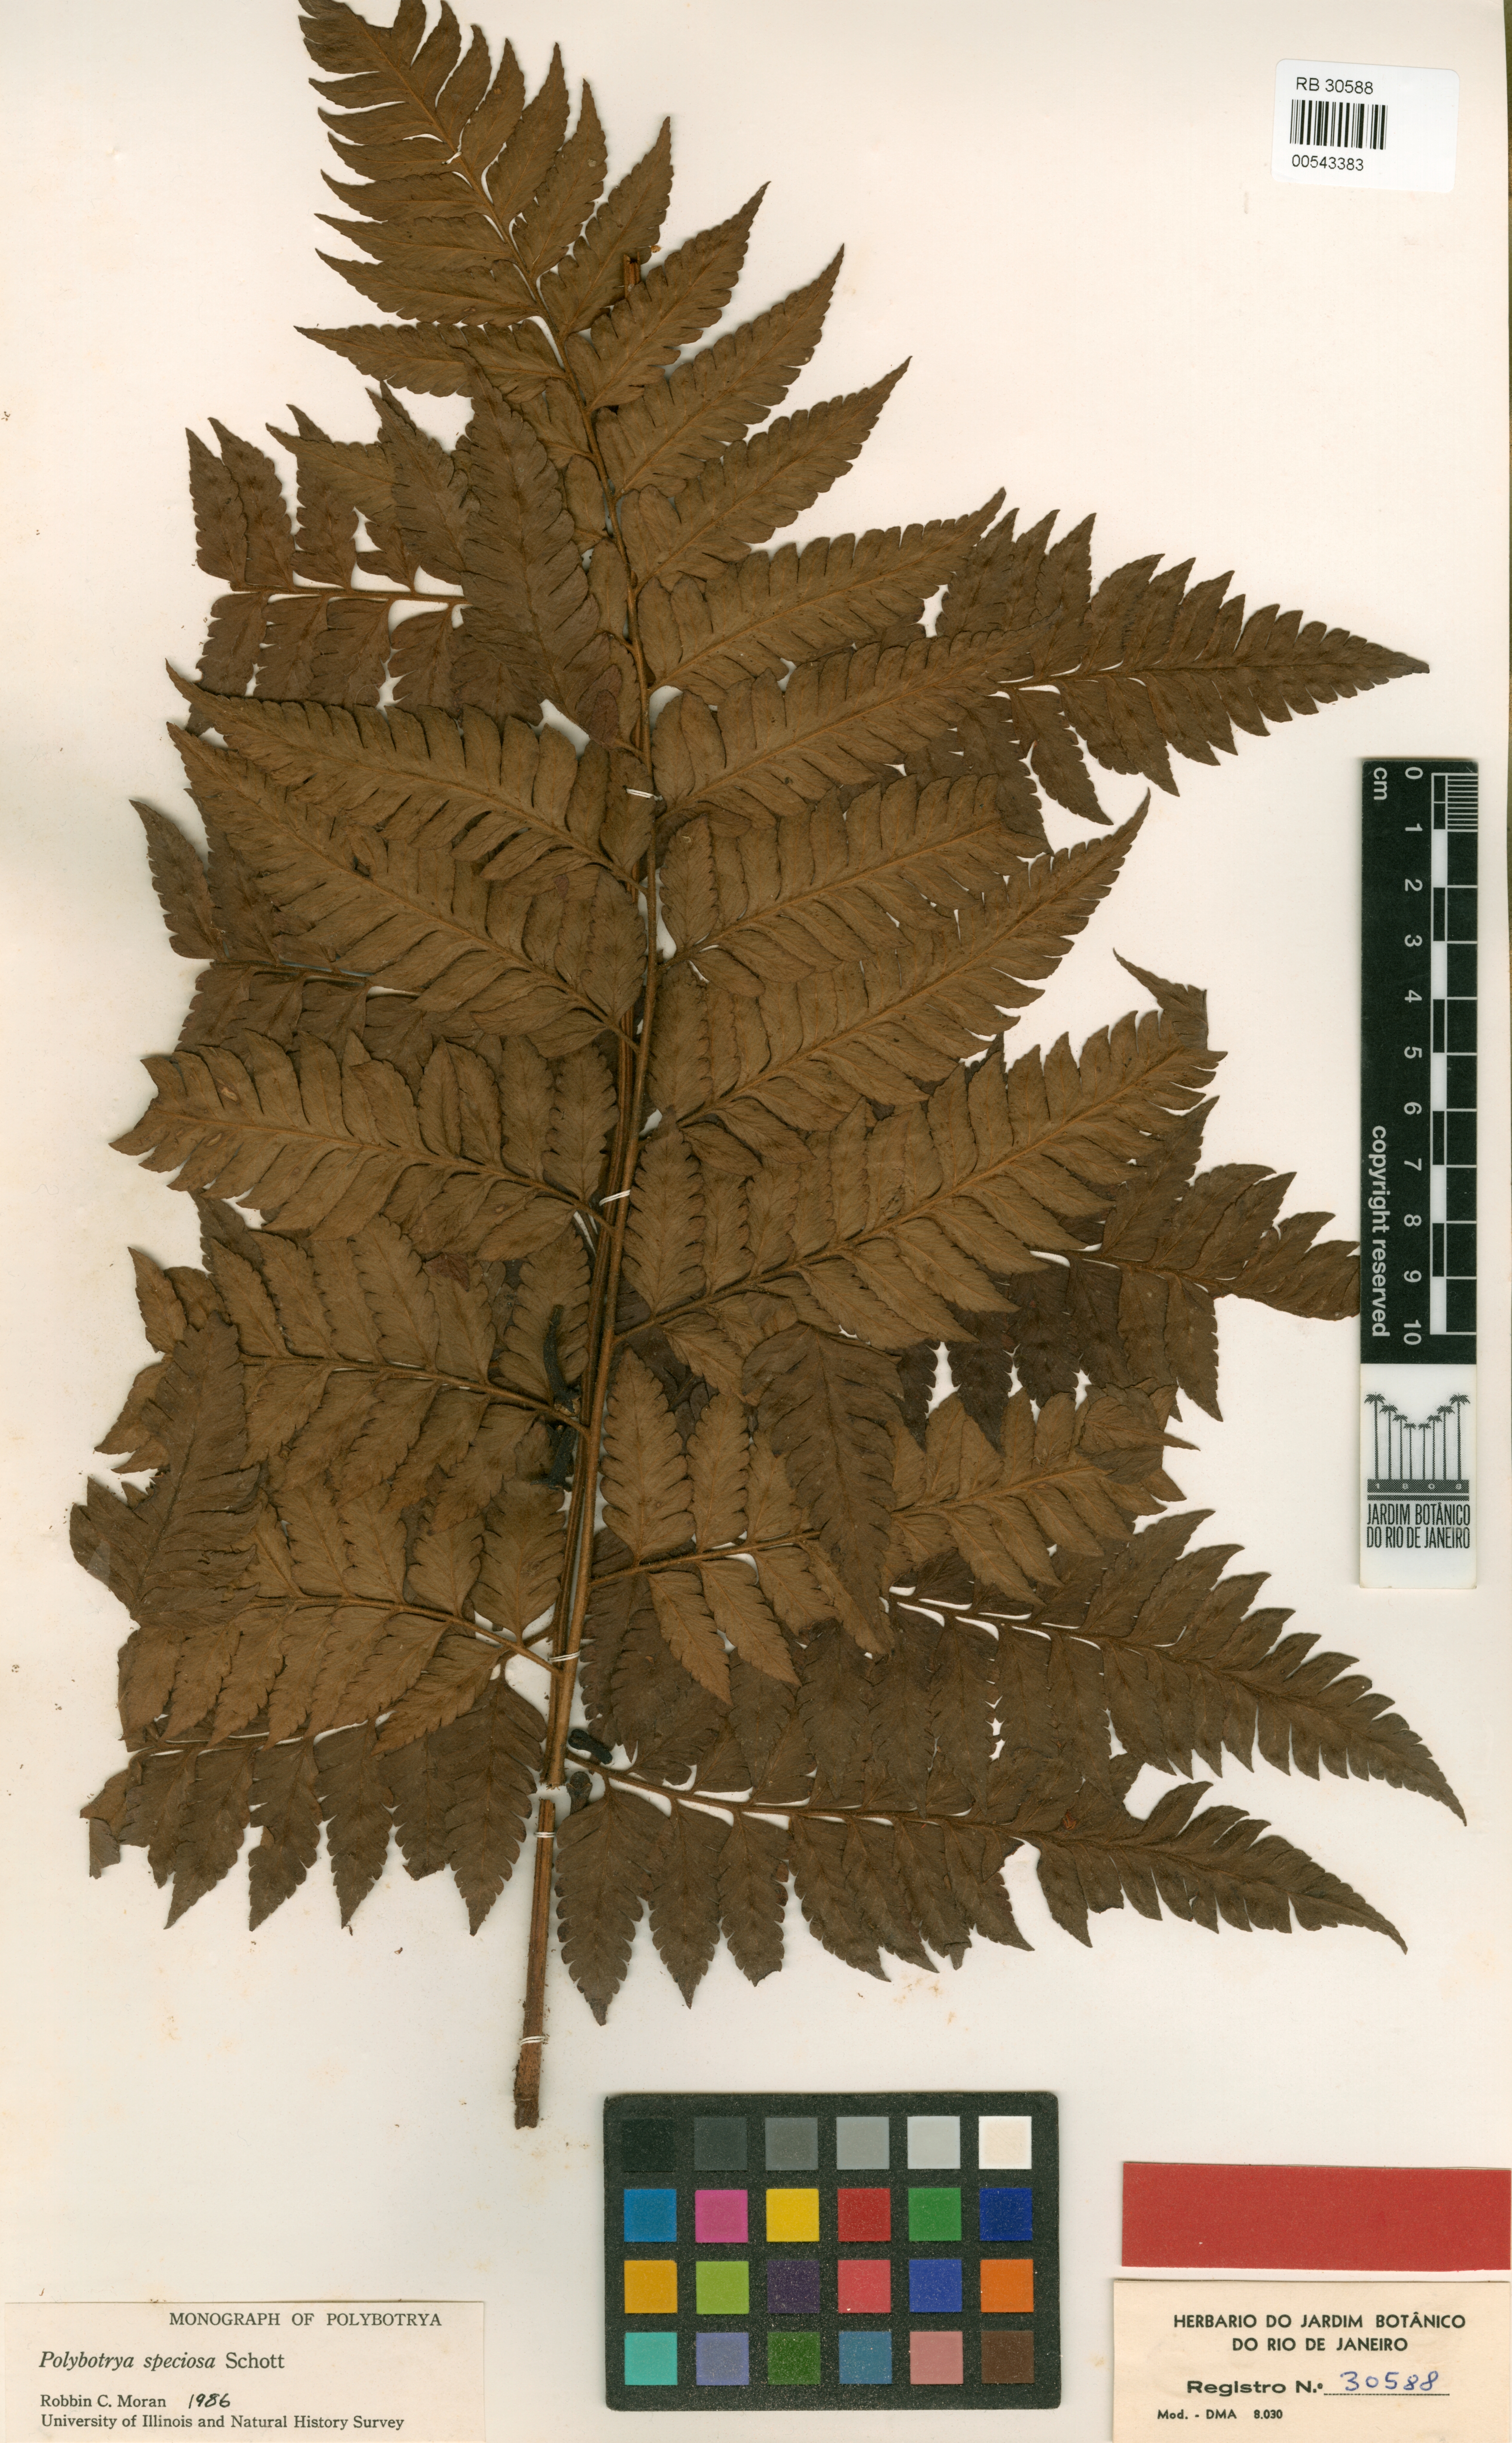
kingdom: Plantae
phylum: Tracheophyta
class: Polypodiopsida
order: Polypodiales
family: Dryopteridaceae
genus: Polybotrya
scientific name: Polybotrya speciosa
